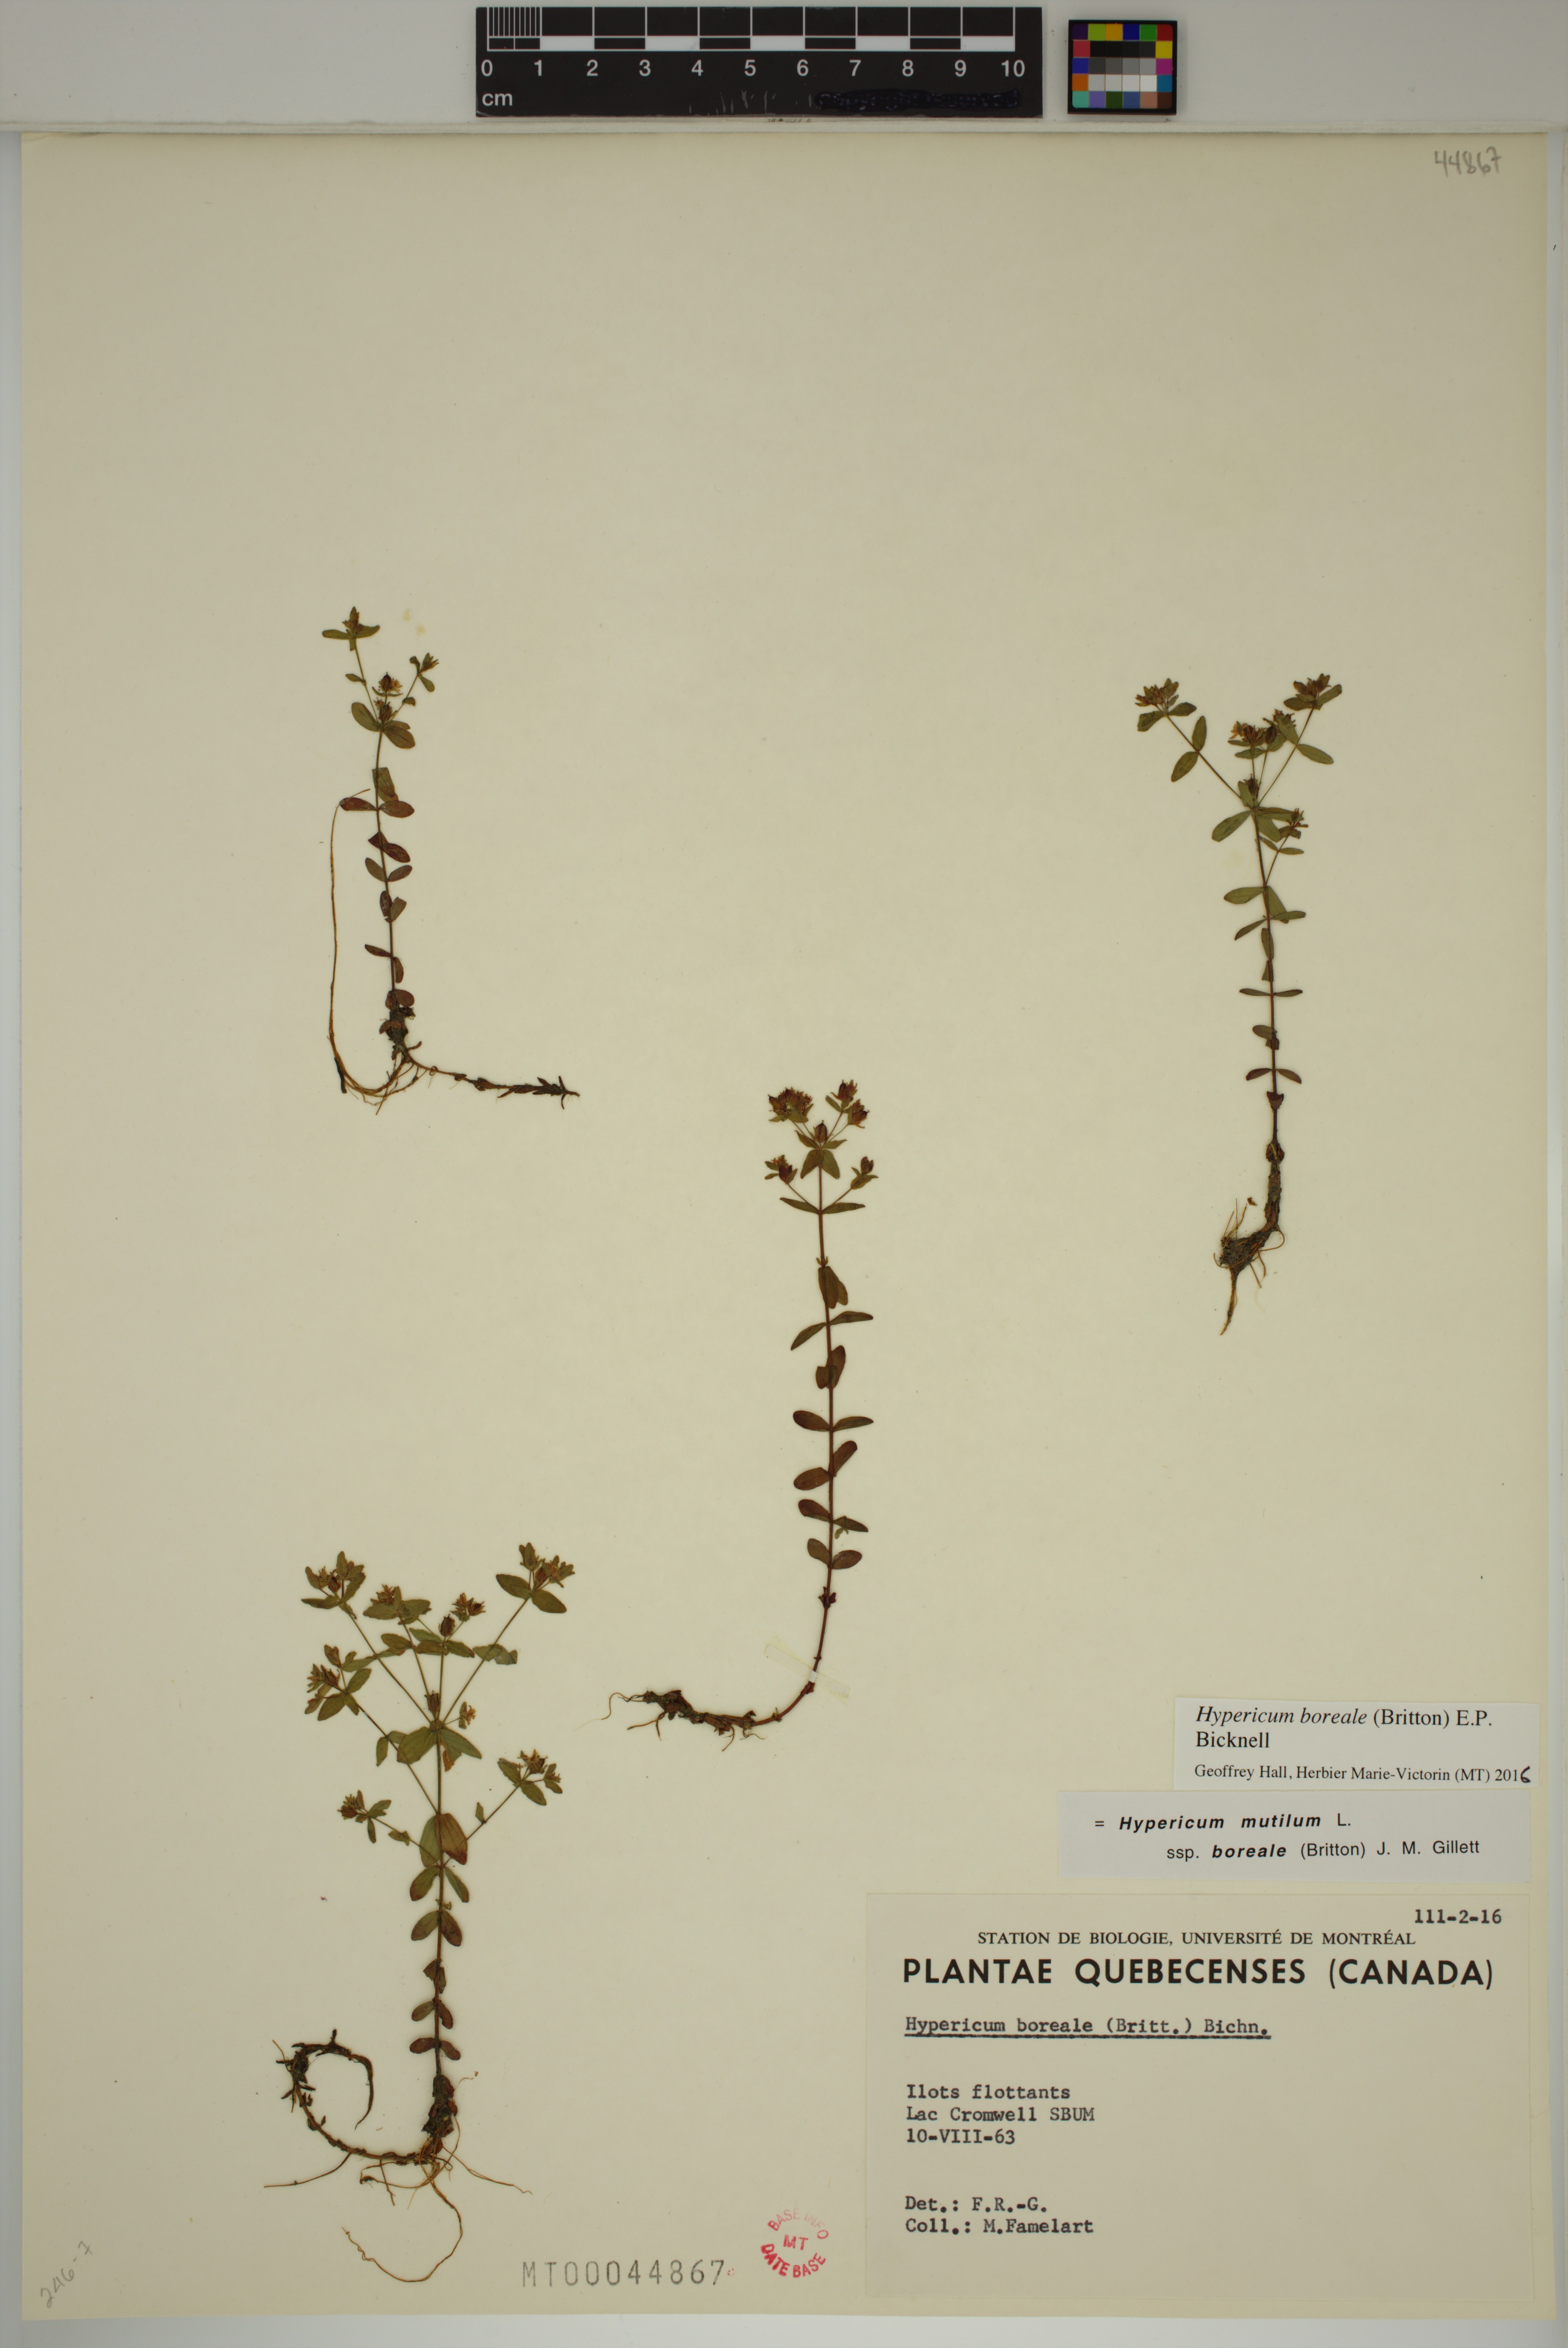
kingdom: Plantae
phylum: Tracheophyta
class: Magnoliopsida
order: Malpighiales
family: Hypericaceae
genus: Hypericum
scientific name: Hypericum boreale
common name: Northern bog st. john's-wort
